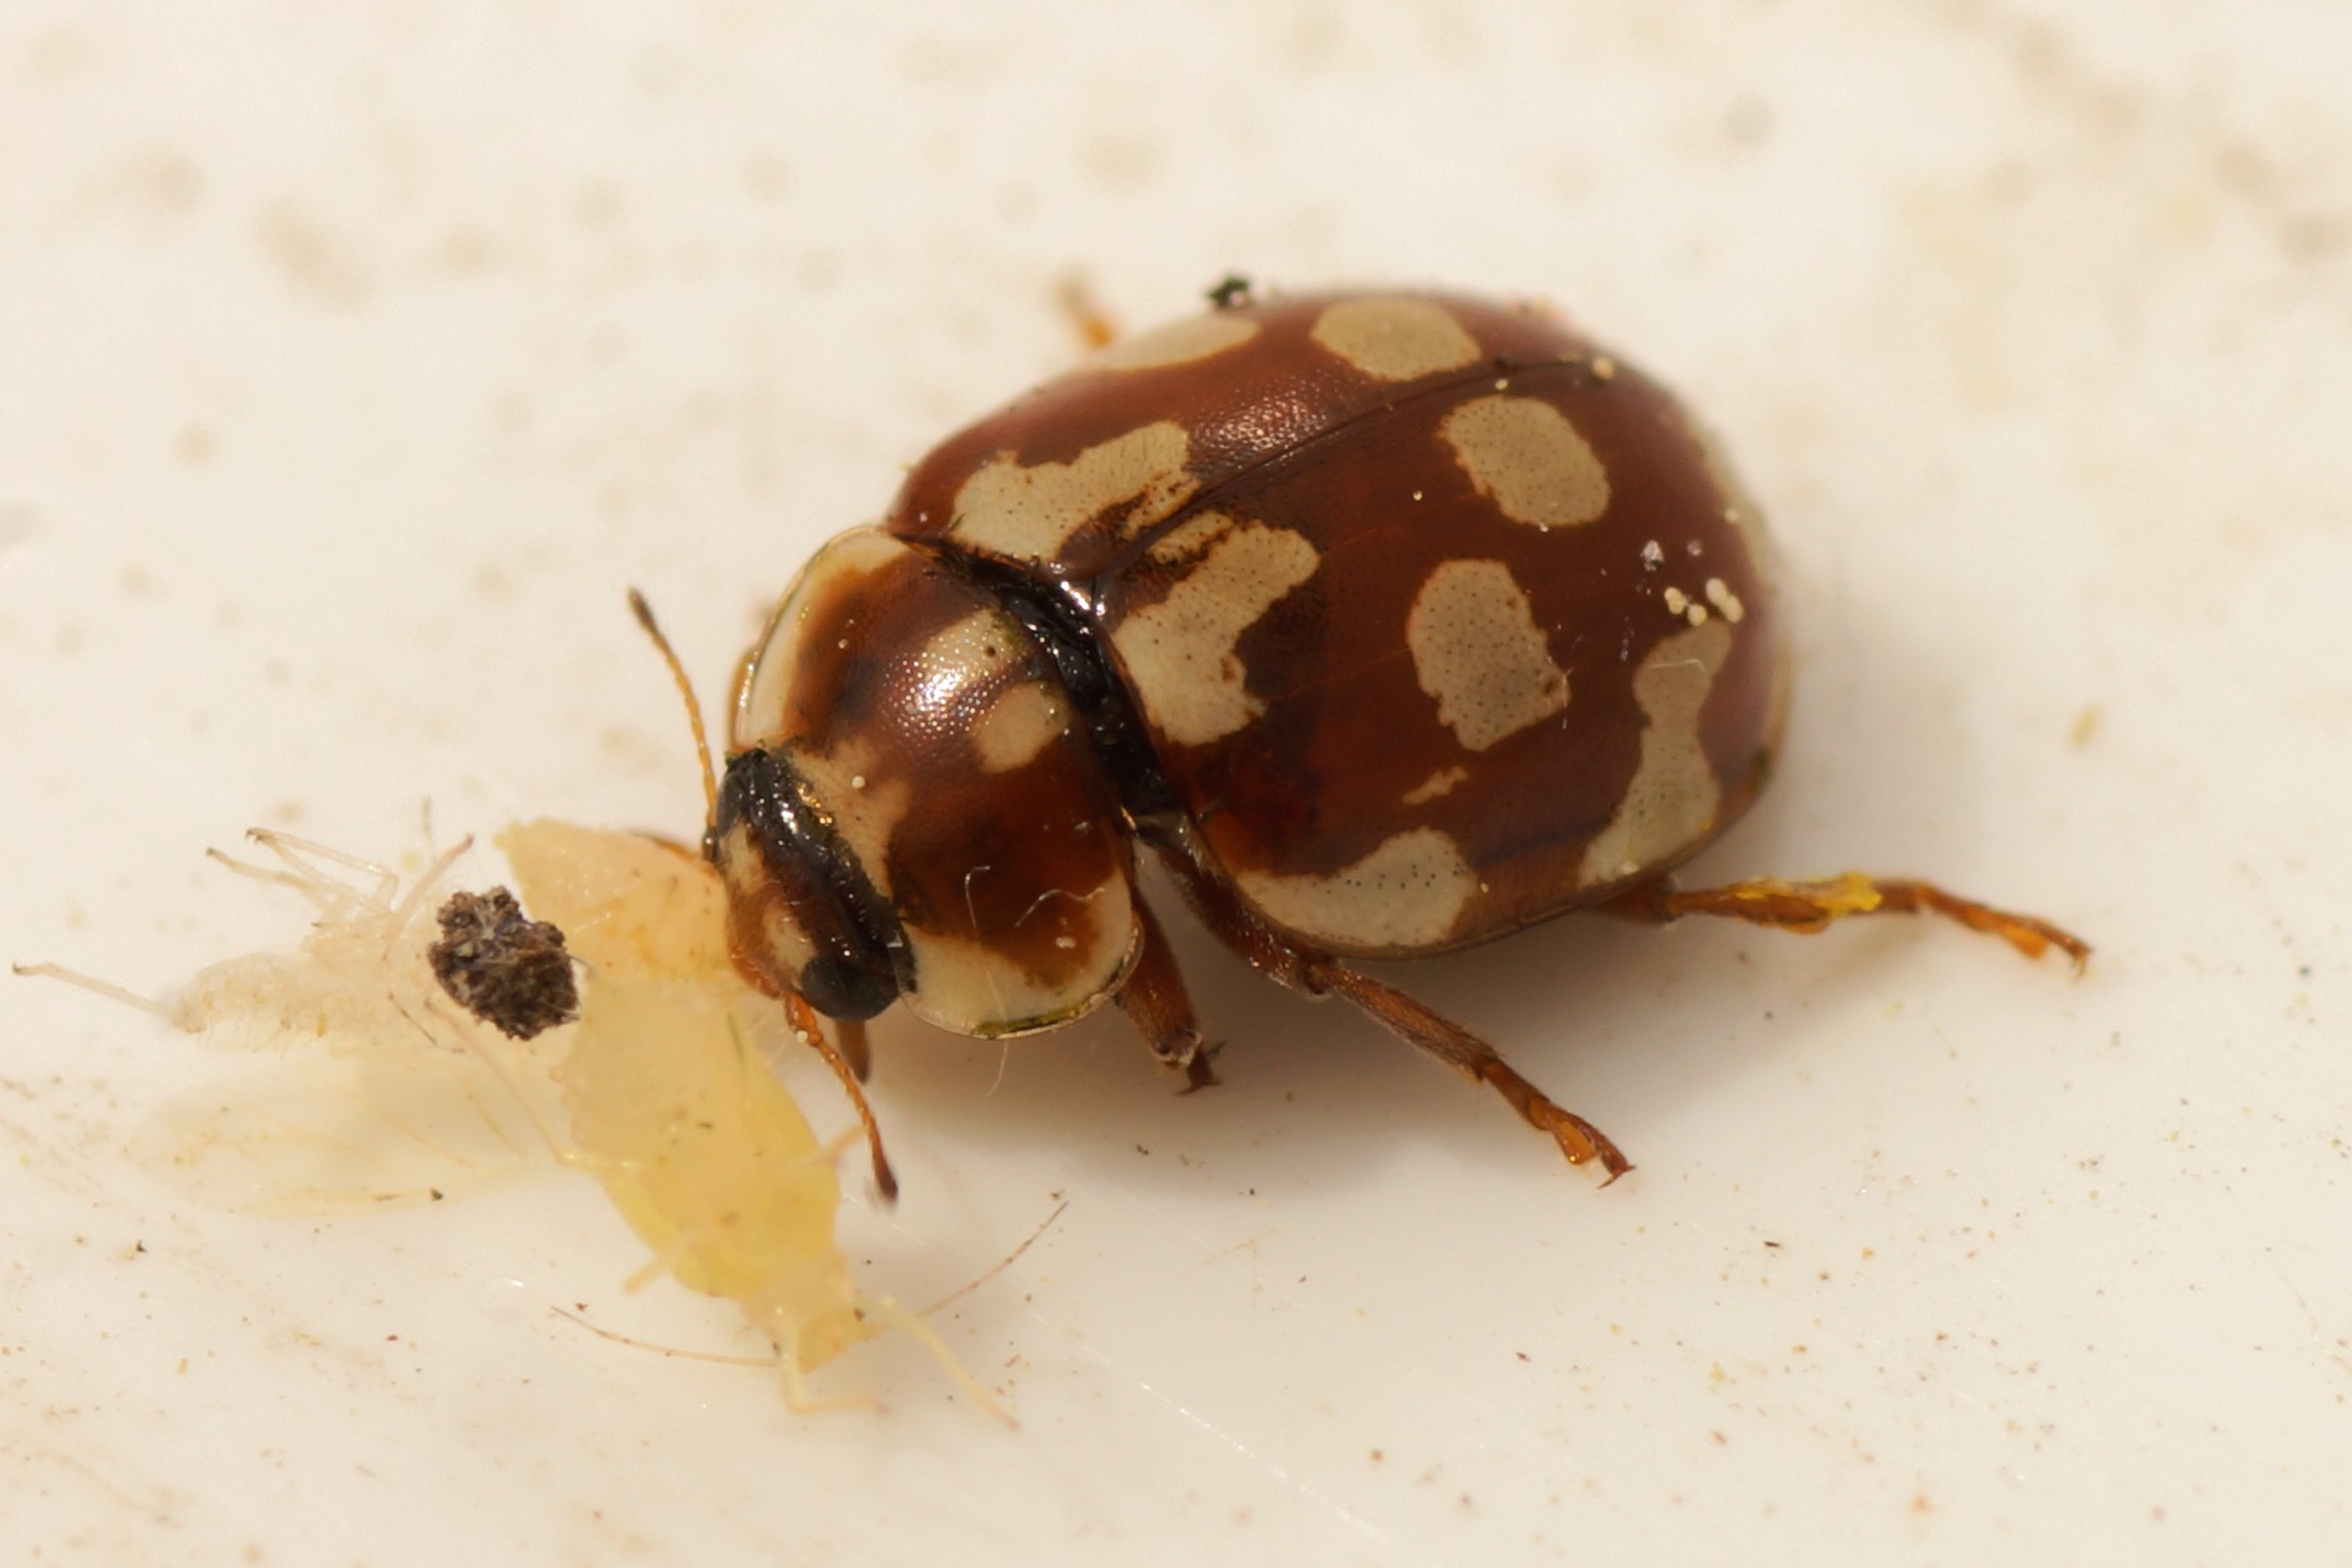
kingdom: Animalia
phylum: Arthropoda
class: Insecta
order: Coleoptera
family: Coccinellidae
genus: Myrrha
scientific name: Myrrha octodecimguttata
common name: Attenplettet mariehøne
